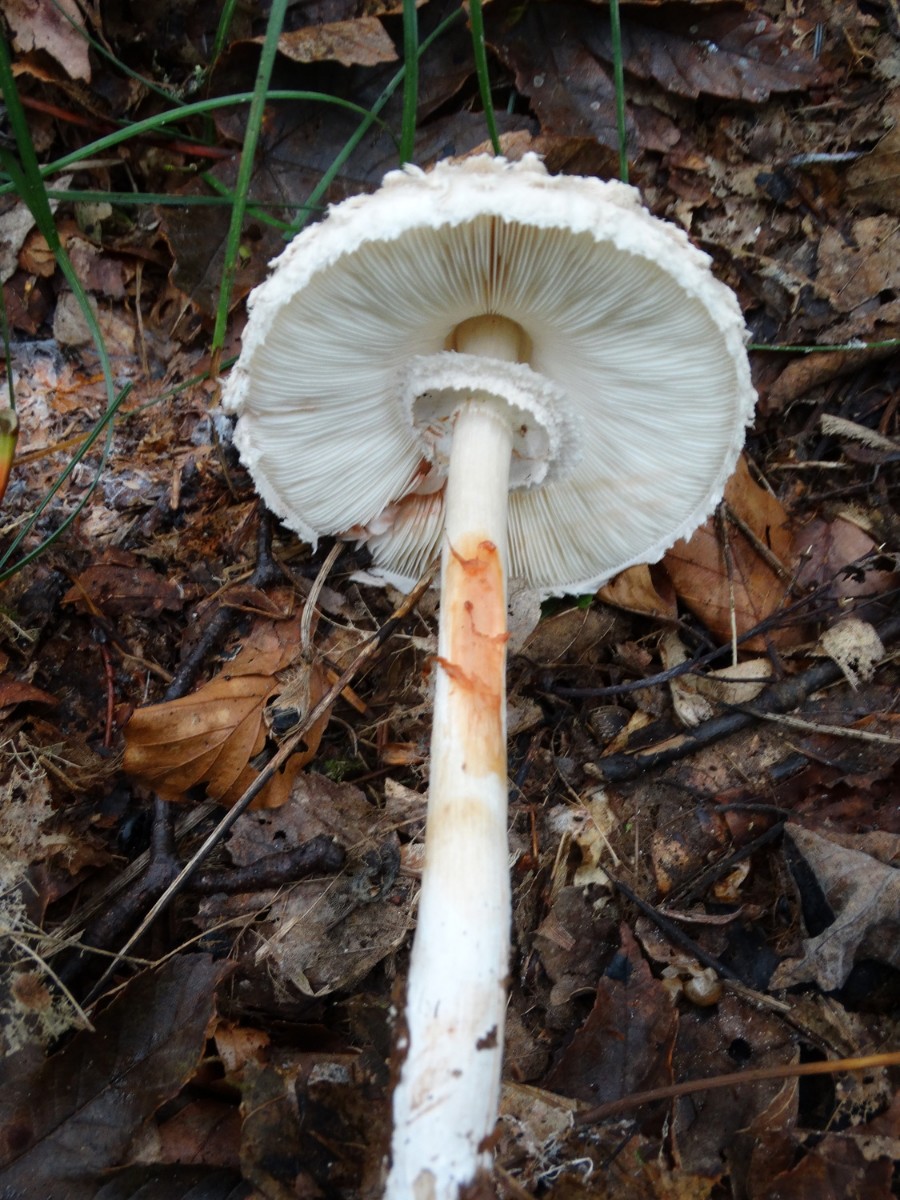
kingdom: Fungi
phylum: Basidiomycota
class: Agaricomycetes
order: Agaricales
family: Agaricaceae
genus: Chlorophyllum
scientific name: Chlorophyllum olivieri
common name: almindelig rabarberhat
